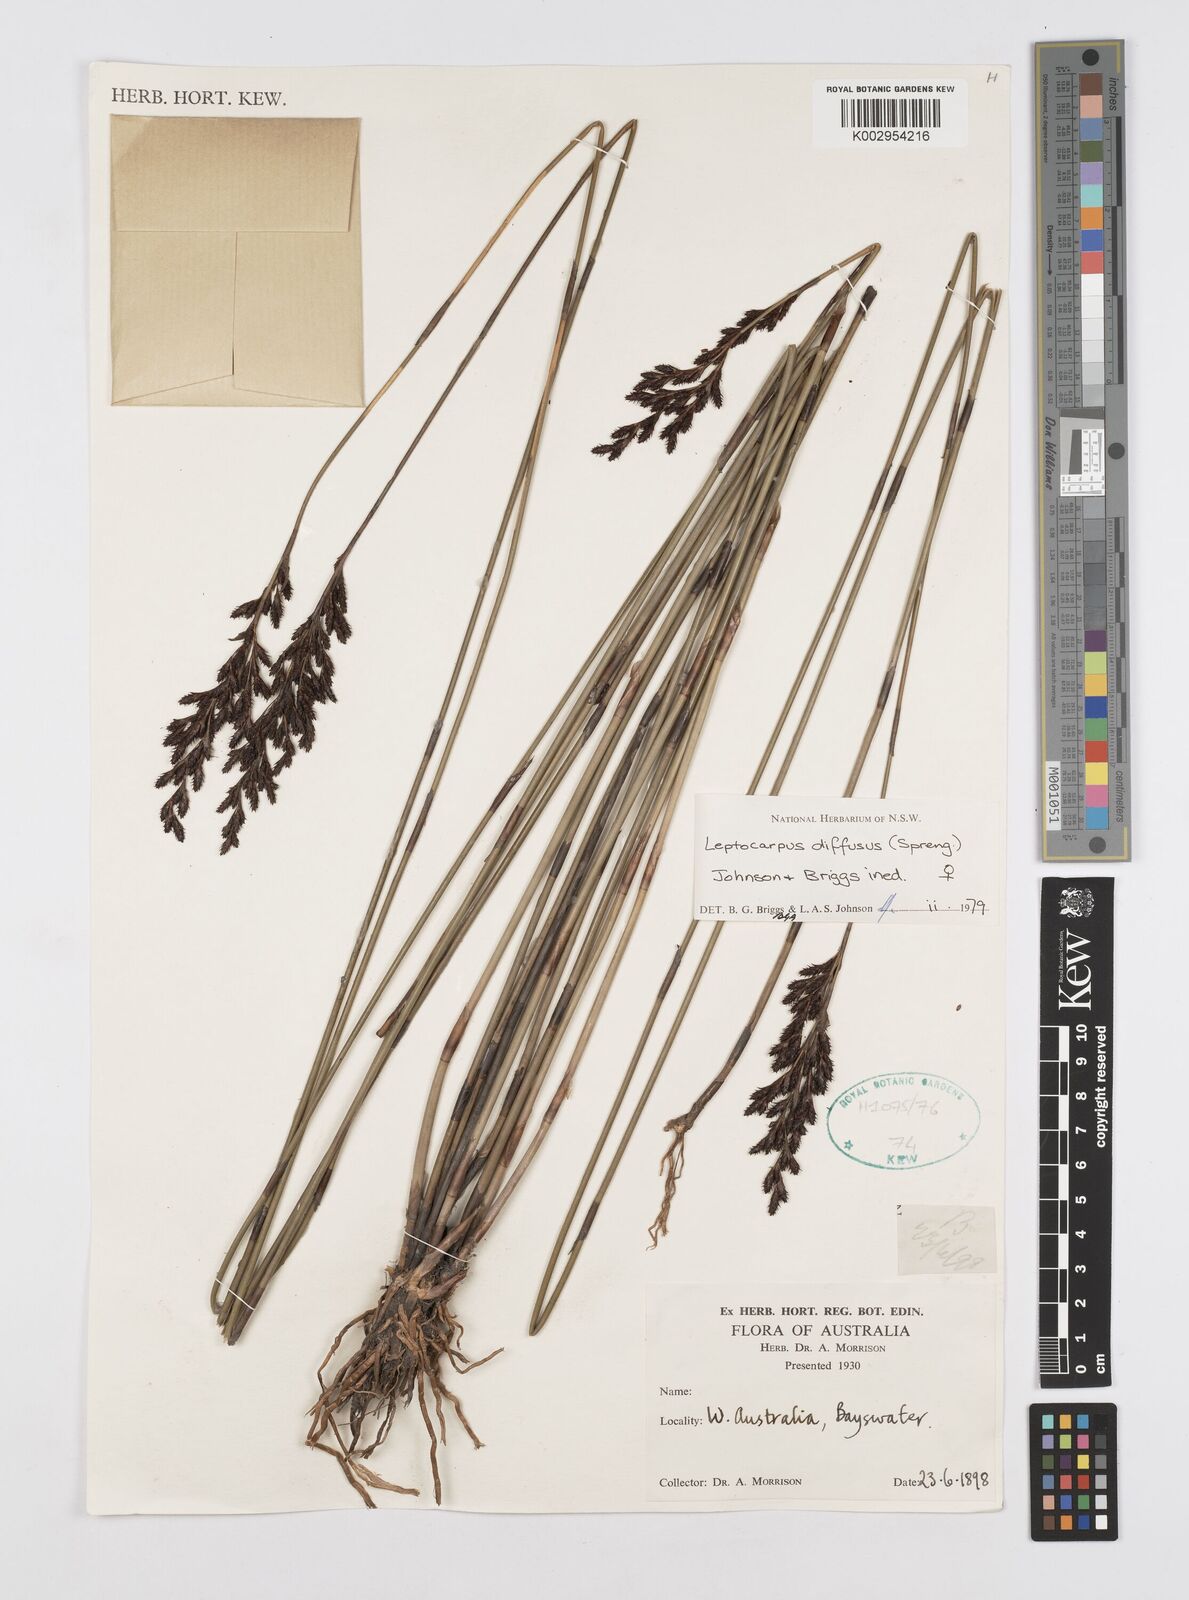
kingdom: Plantae
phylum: Tracheophyta
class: Liliopsida
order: Poales
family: Restionaceae
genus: Leptocarpus
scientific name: Leptocarpus laxus
